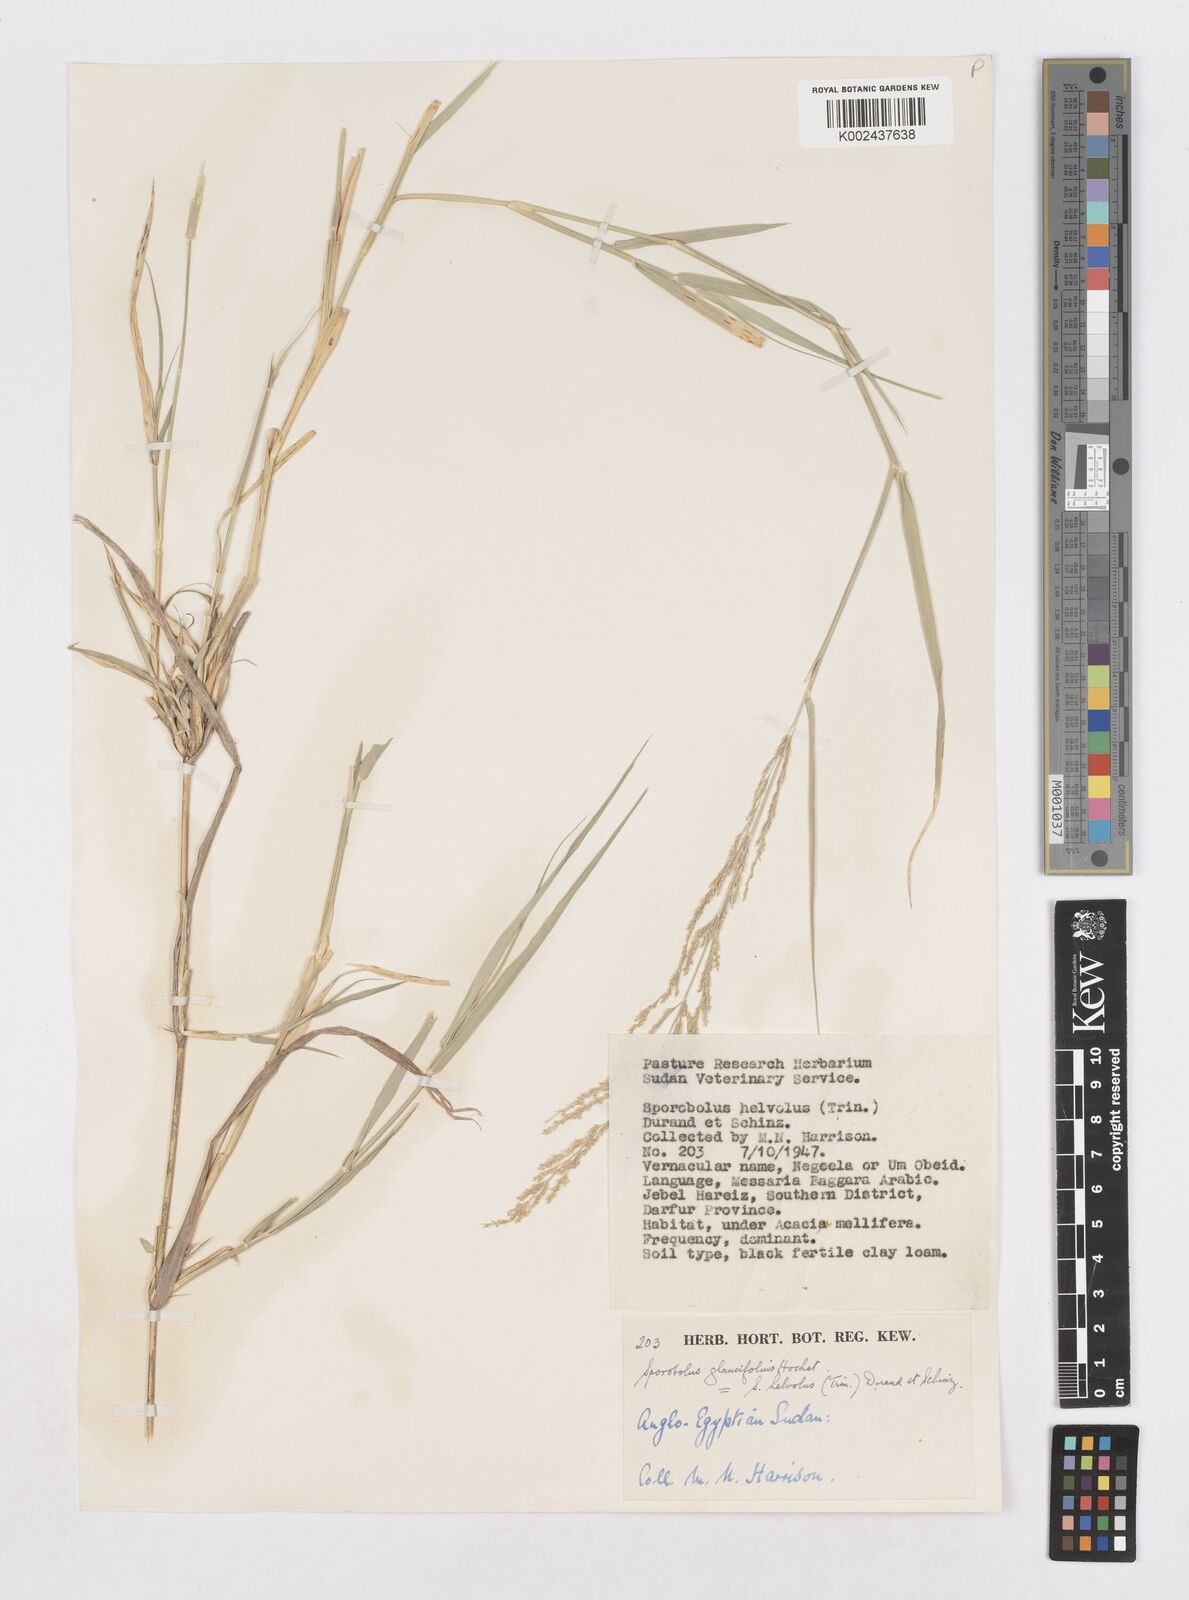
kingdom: Plantae
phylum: Tracheophyta
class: Liliopsida
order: Poales
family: Poaceae
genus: Sporobolus
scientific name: Sporobolus helvolus
